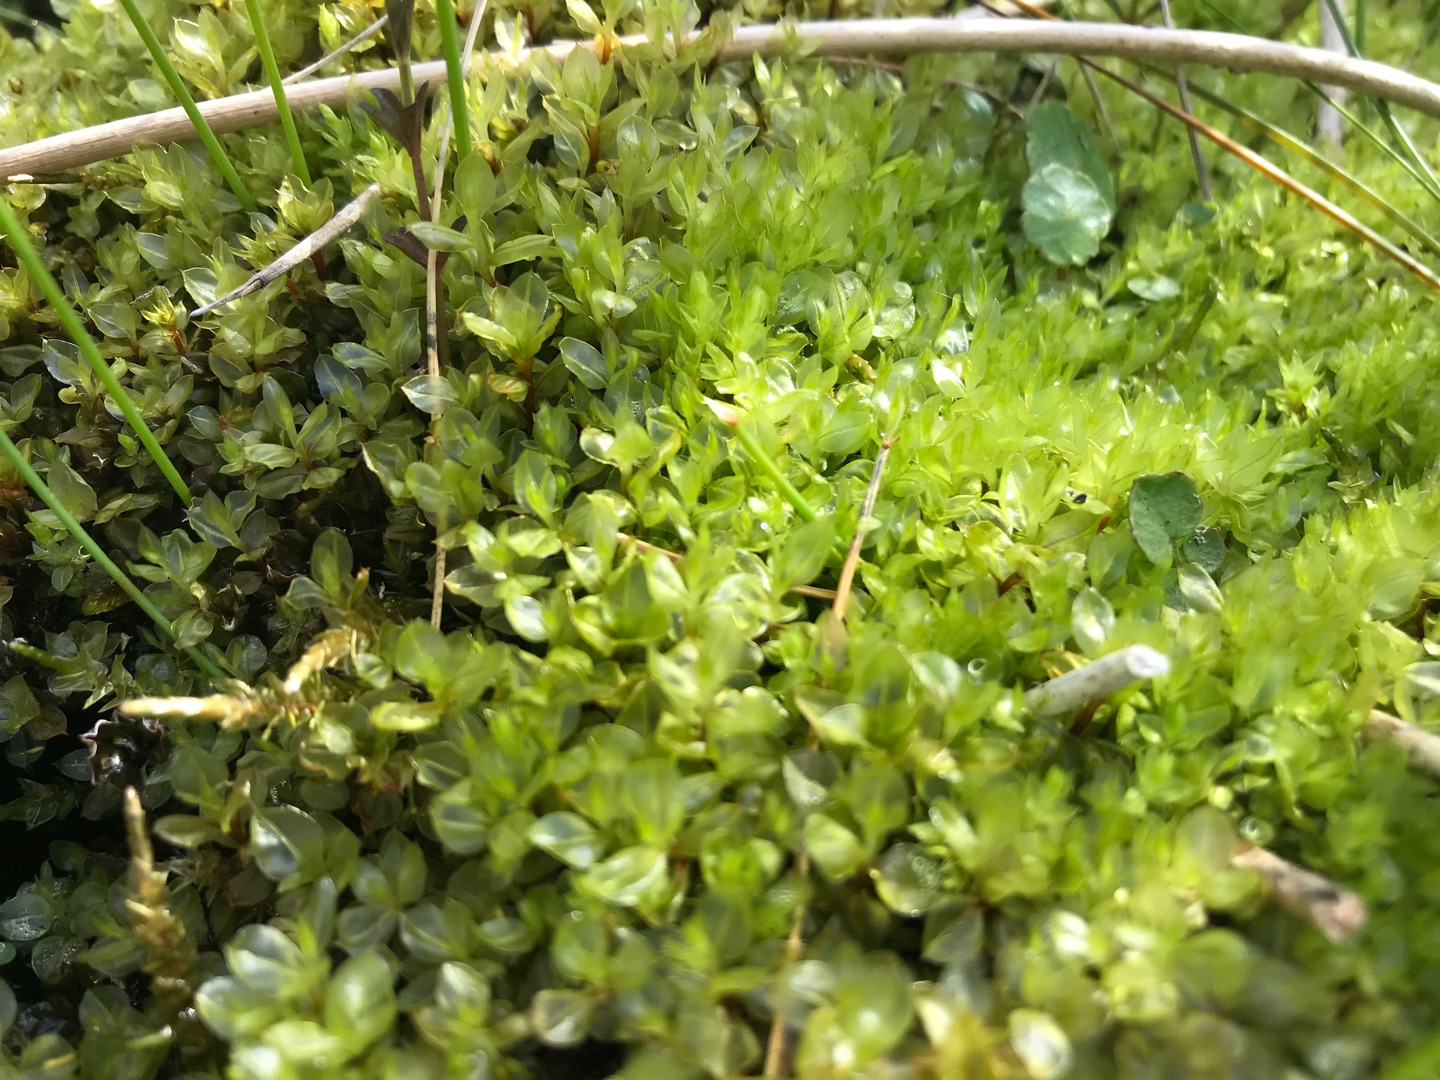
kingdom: Plantae
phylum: Bryophyta
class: Bryopsida
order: Bryales
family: Mniaceae
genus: Cinclidium
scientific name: Cinclidium stygium
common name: Kær-gittermos
